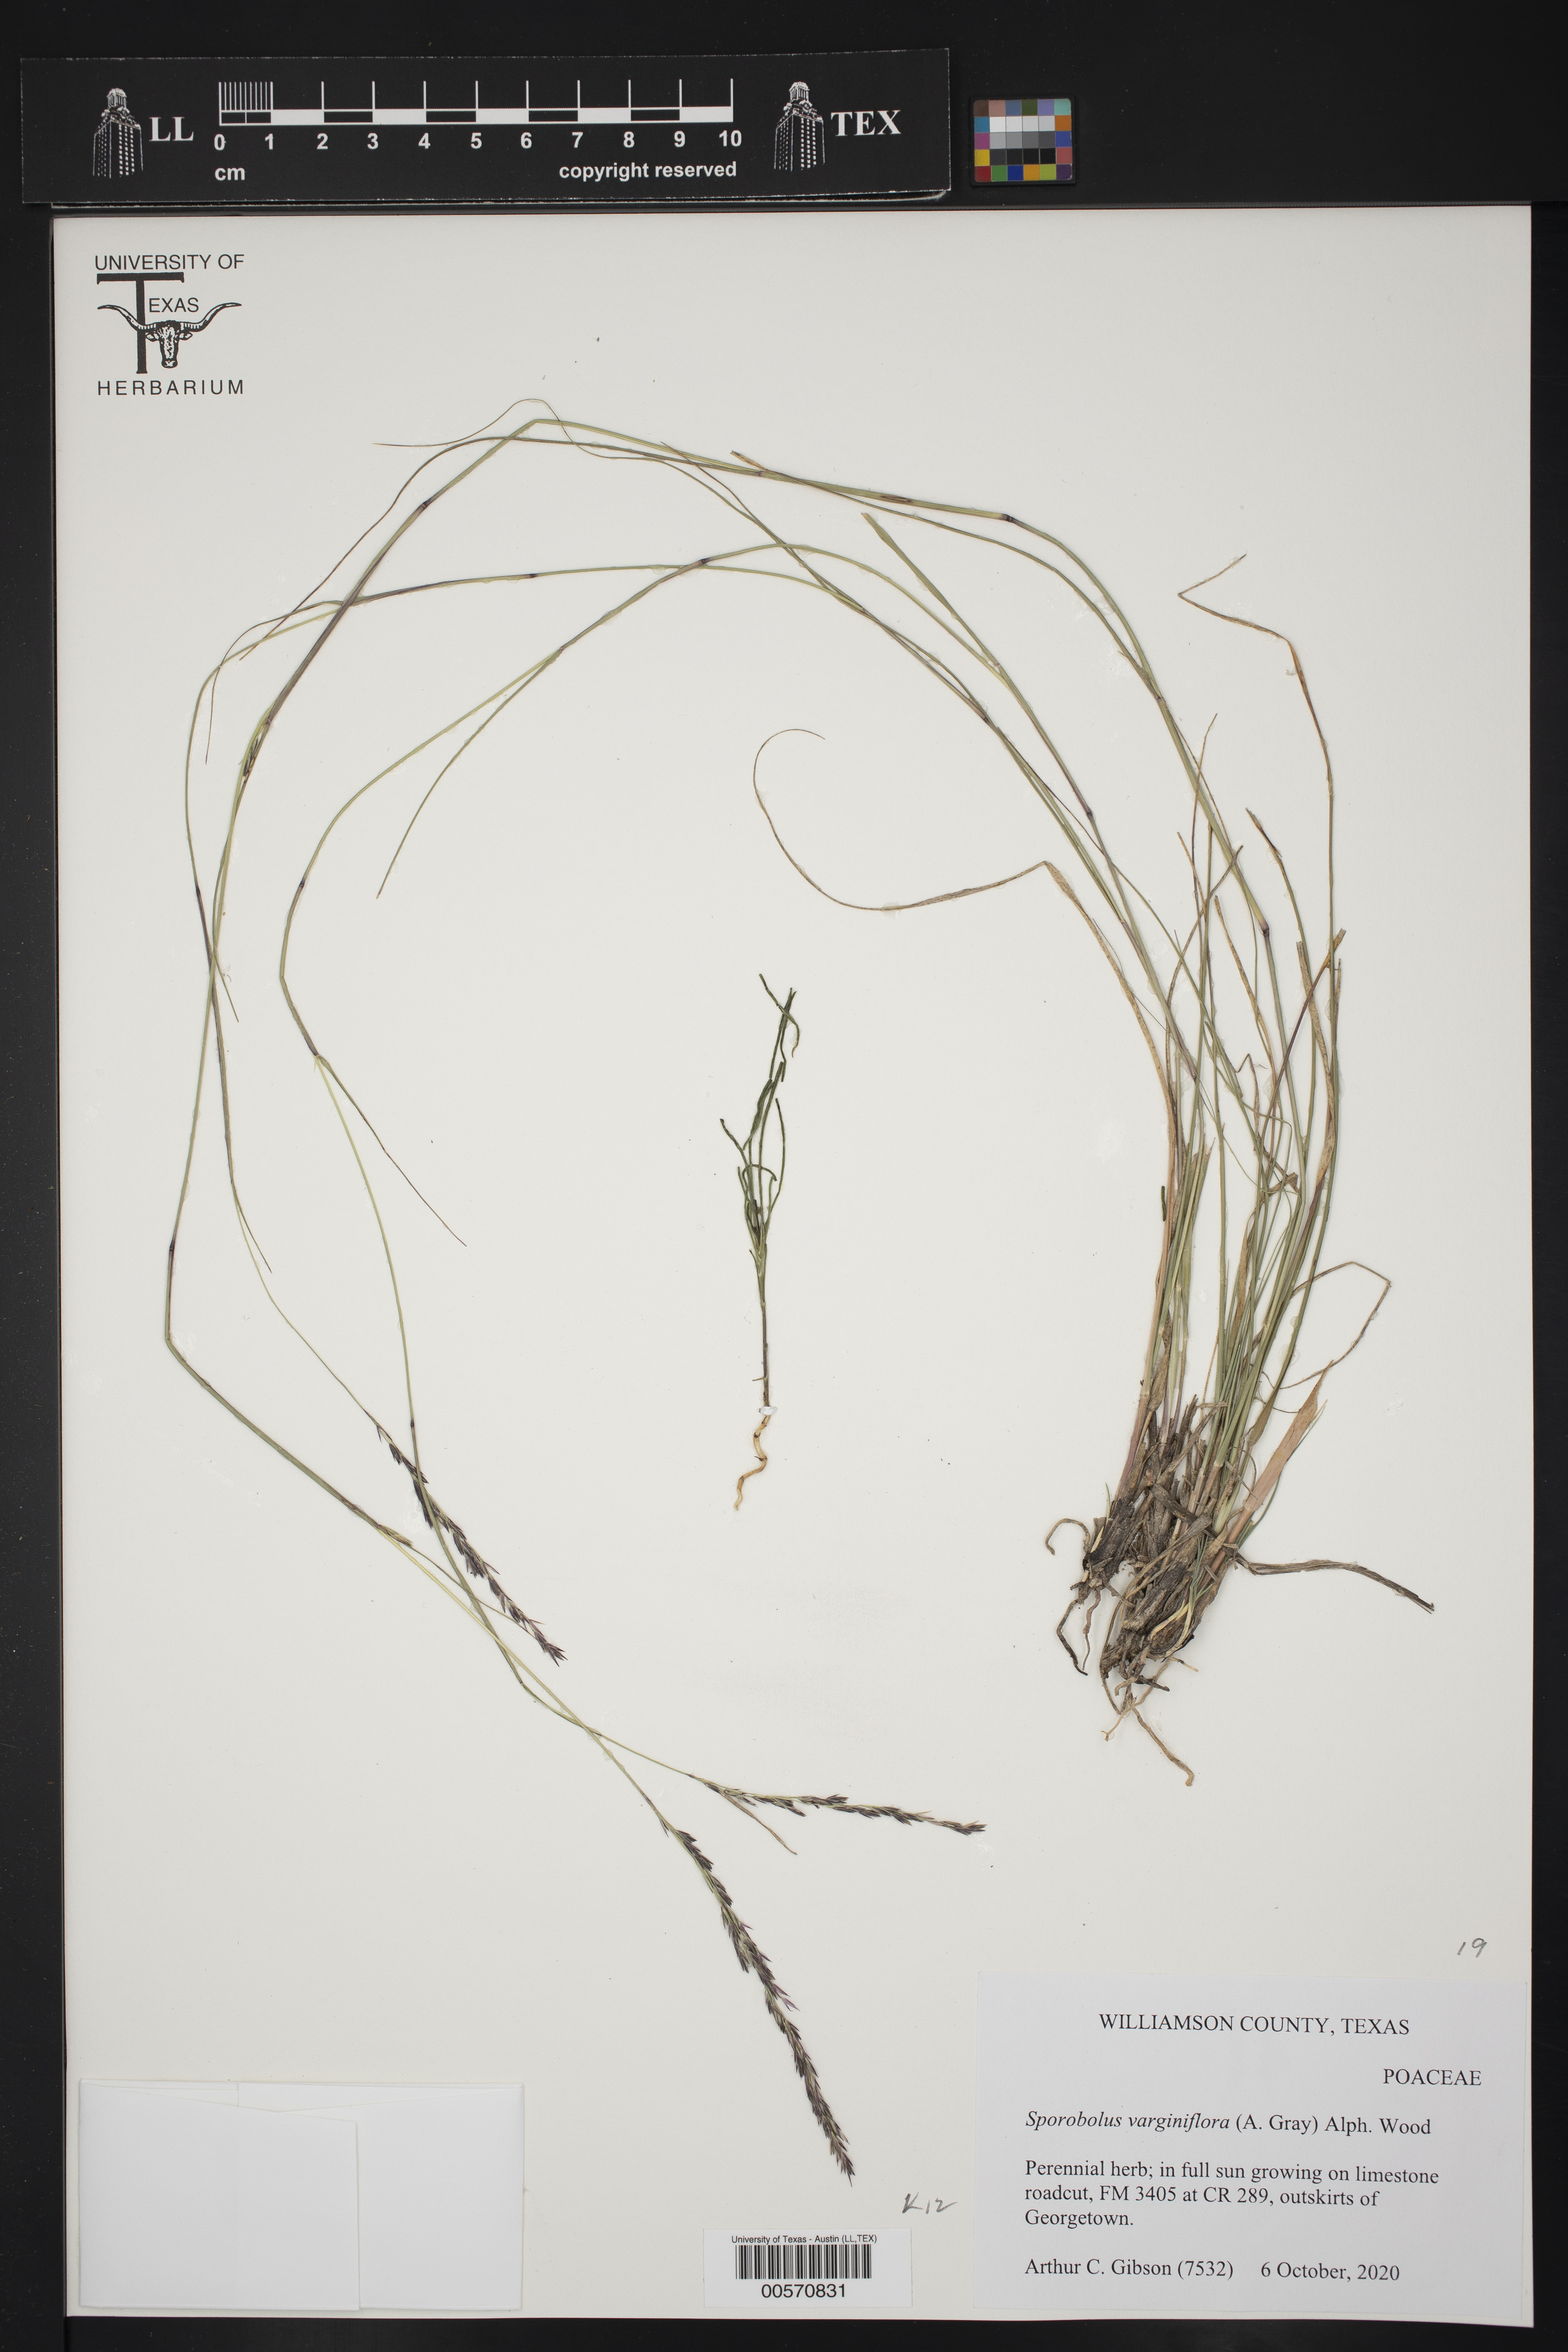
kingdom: Plantae
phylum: Tracheophyta
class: Liliopsida
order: Poales
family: Poaceae
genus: Sporobolus
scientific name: Sporobolus vaginiflorus
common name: Poverty dropseed
